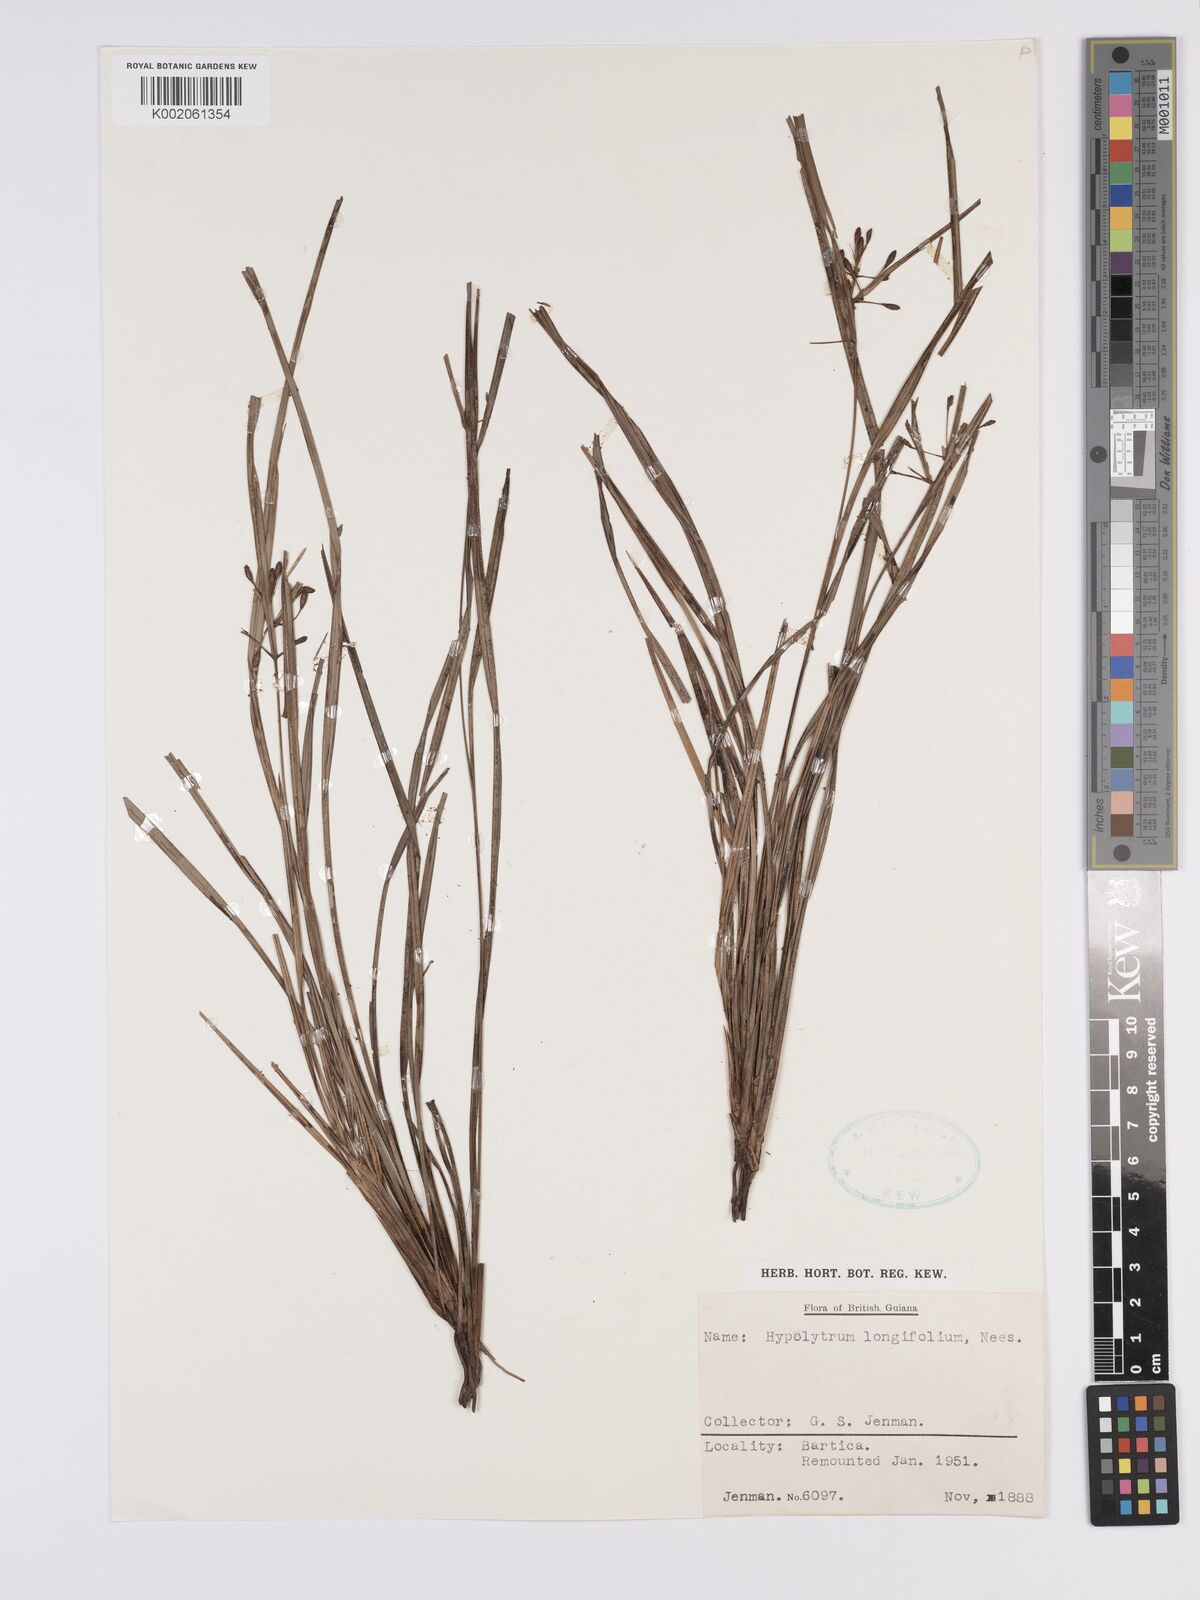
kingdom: Plantae
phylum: Tracheophyta
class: Liliopsida
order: Poales
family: Cyperaceae
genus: Hypolytrum
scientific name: Hypolytrum longifolium
